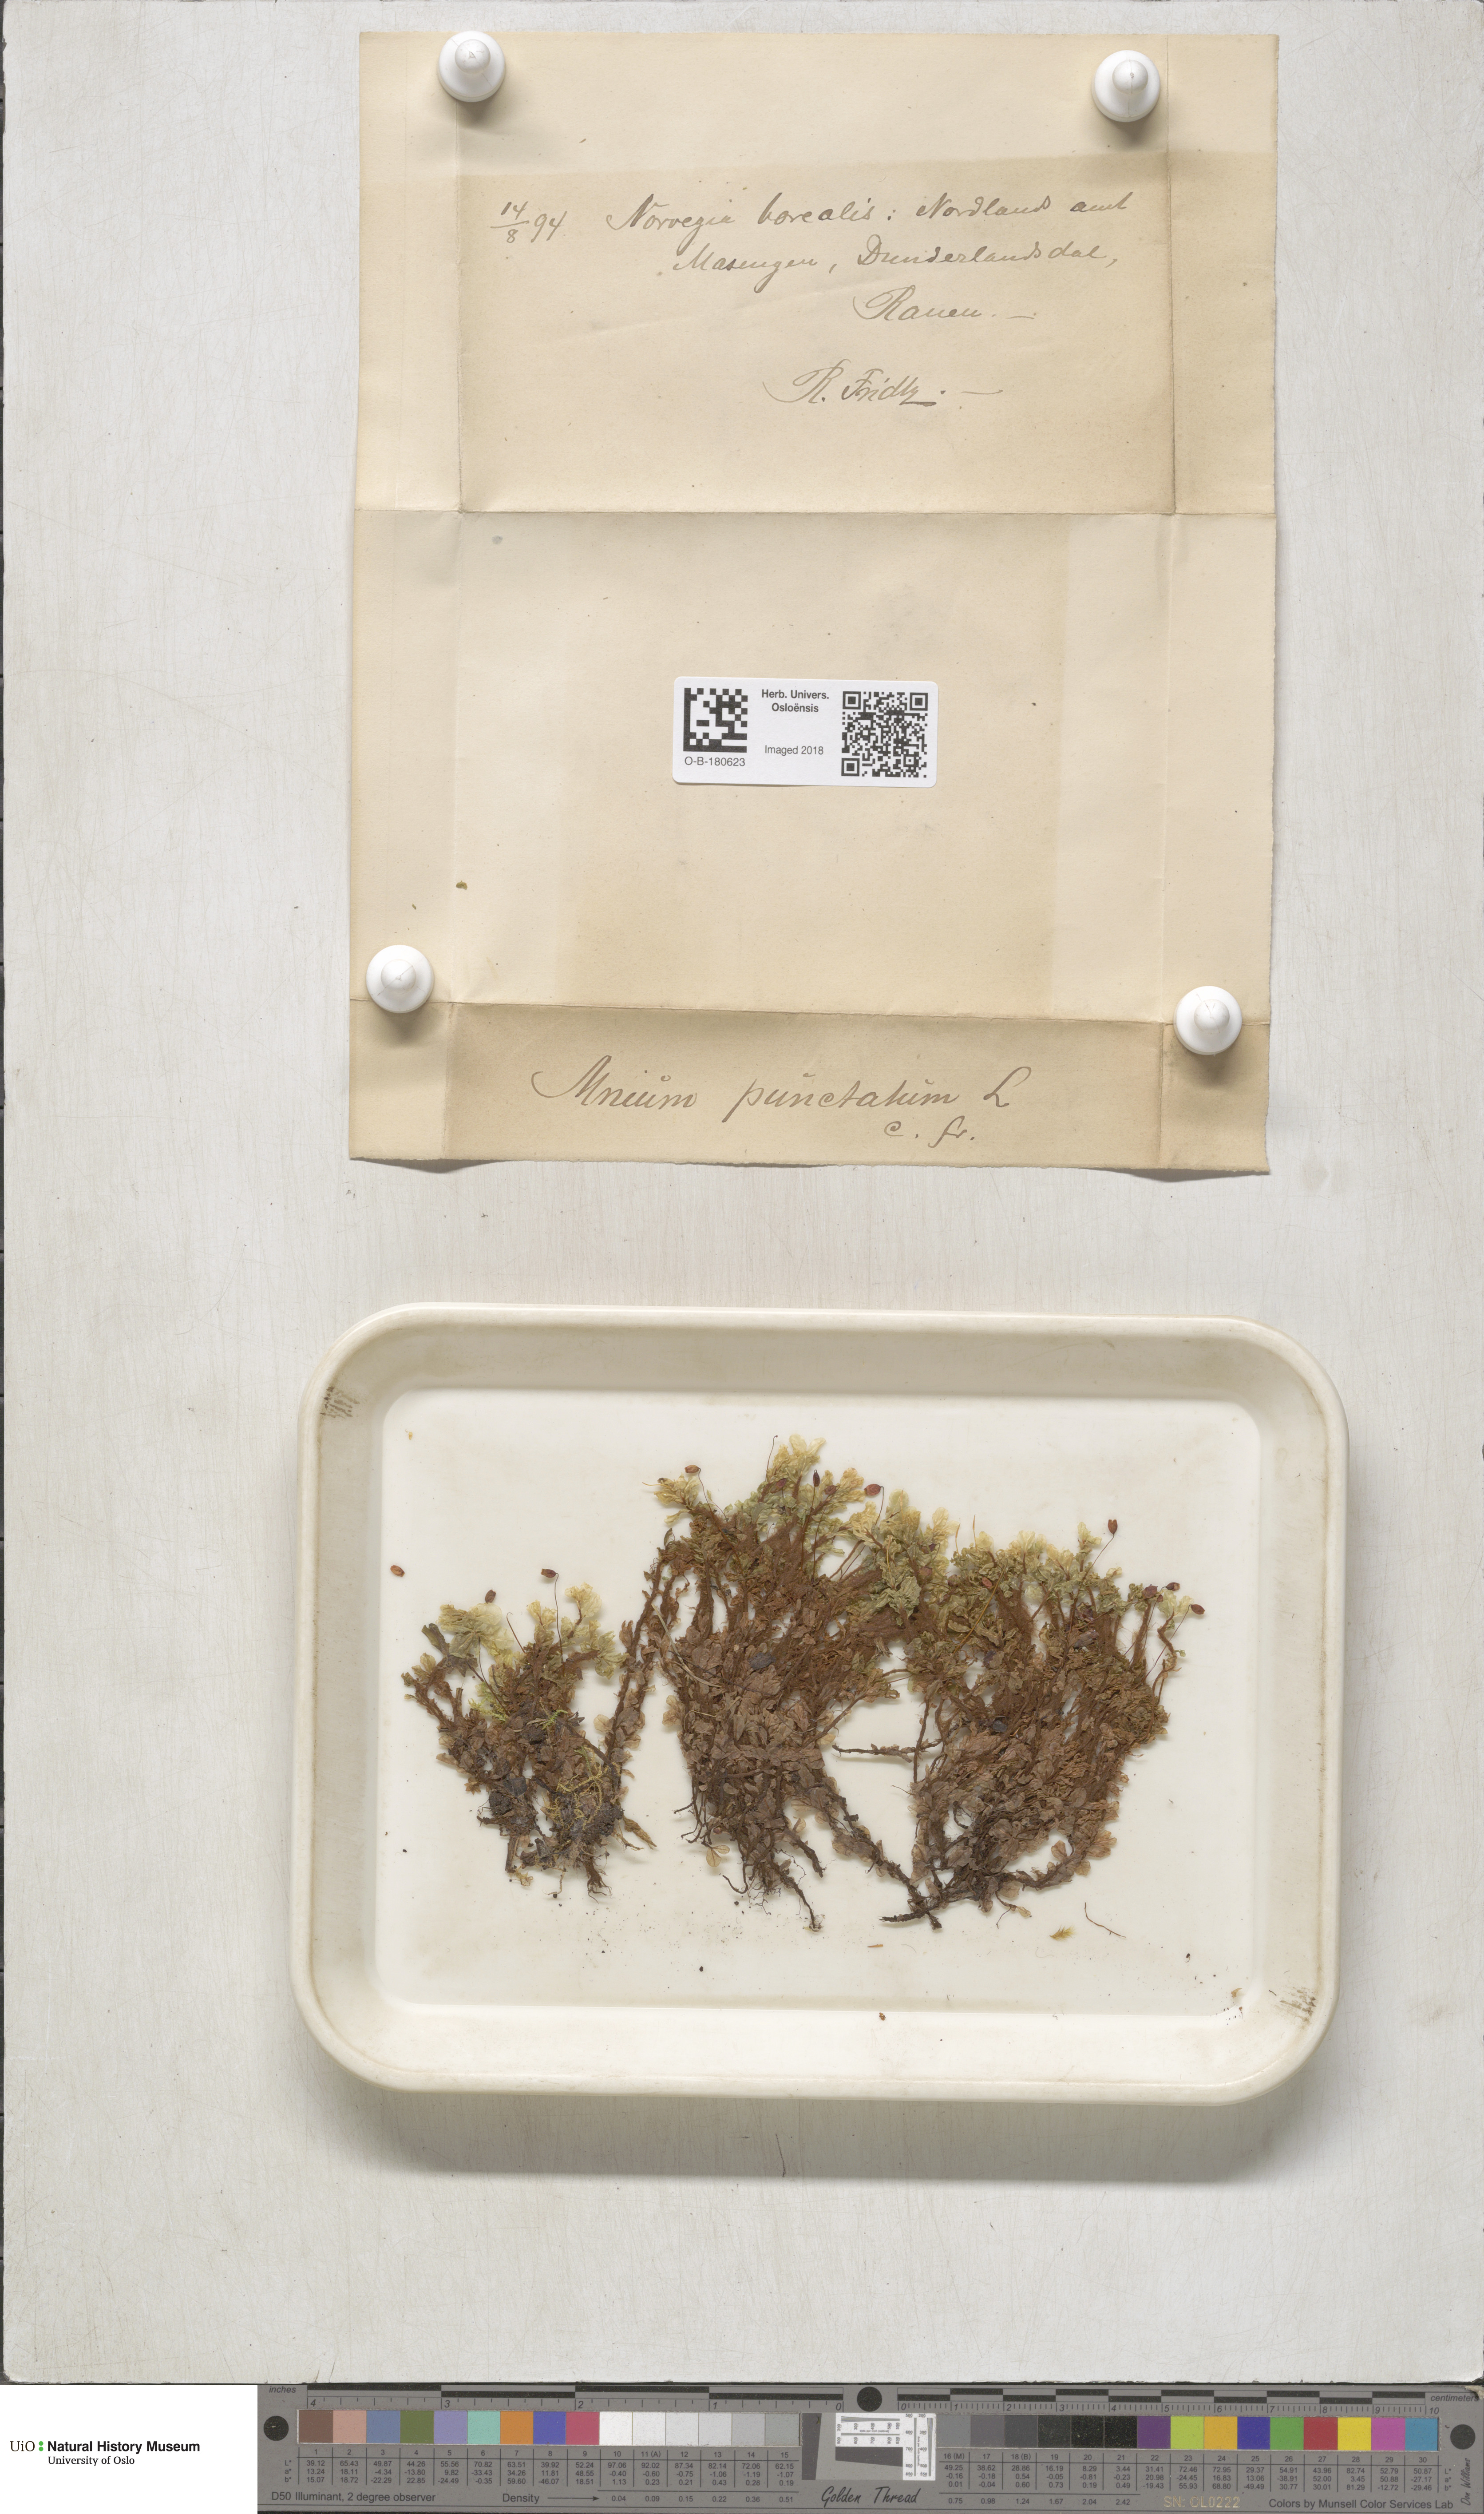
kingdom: Plantae
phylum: Bryophyta
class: Bryopsida
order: Bryales
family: Mniaceae
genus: Rhizomnium
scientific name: Rhizomnium punctatum
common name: Dotted leafy moss
